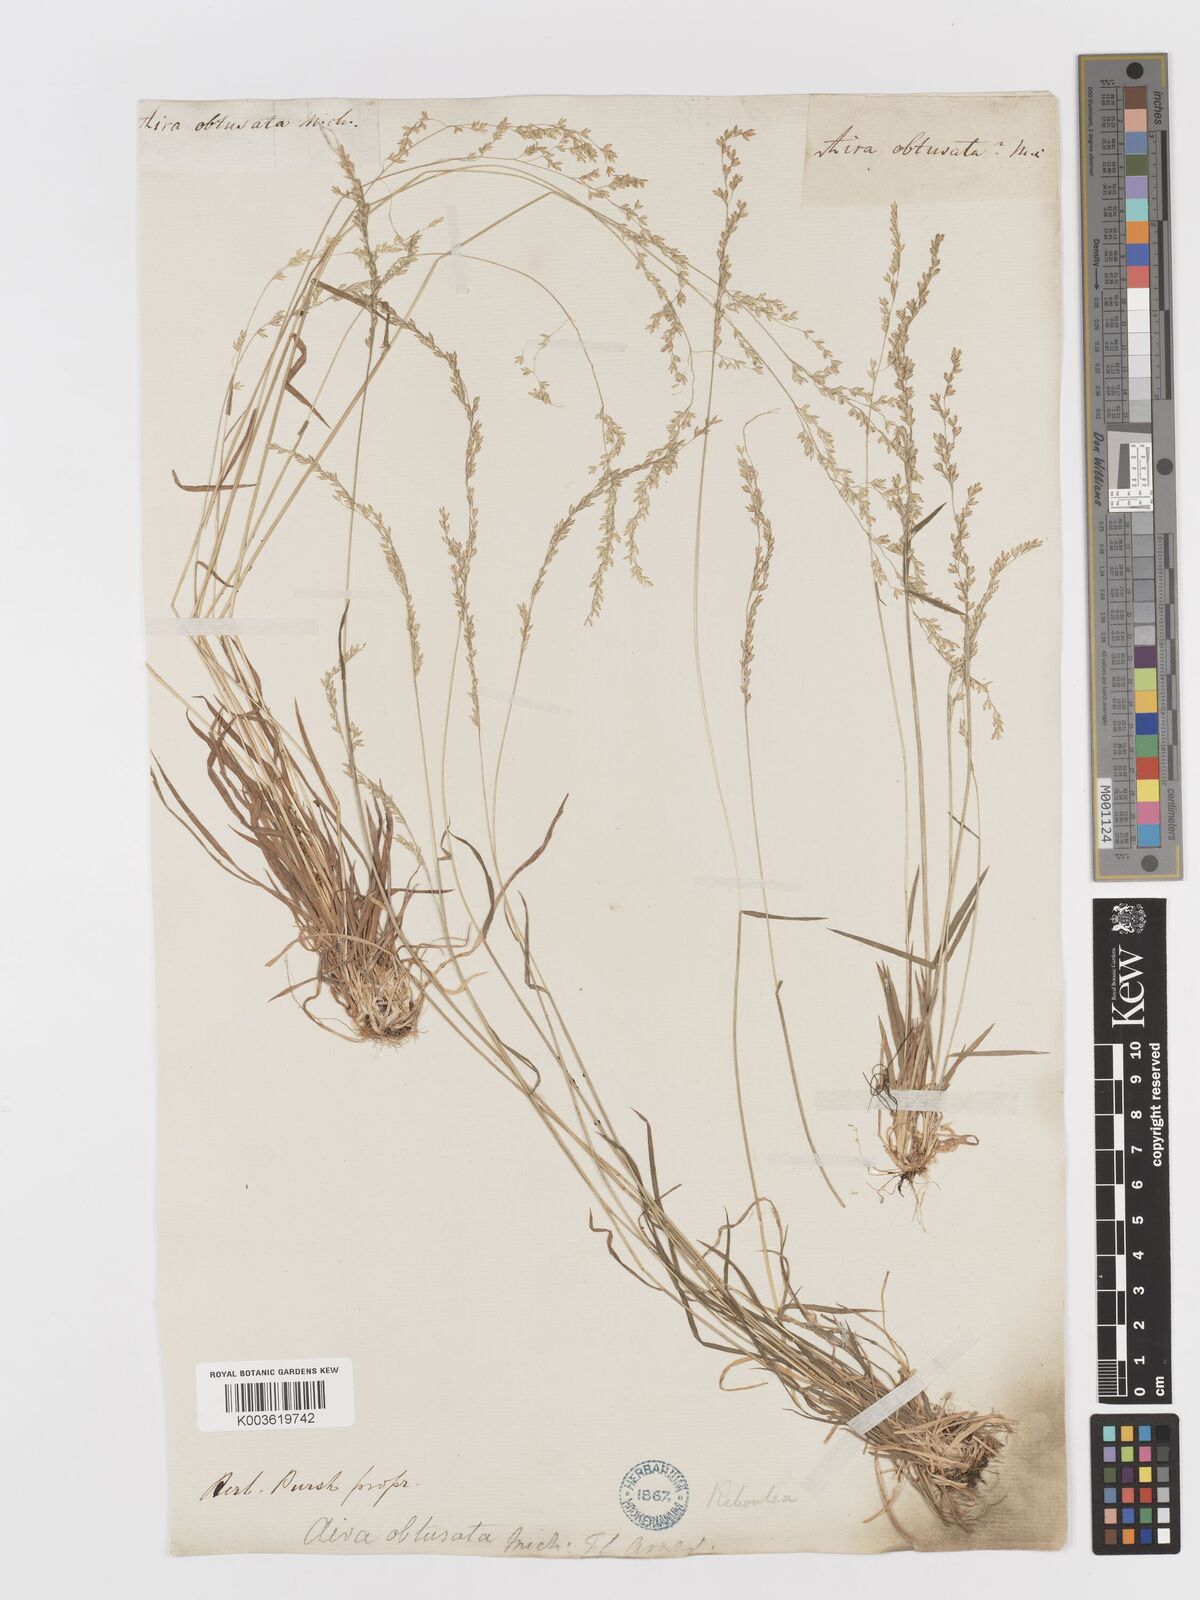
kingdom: Plantae
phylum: Tracheophyta
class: Liliopsida
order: Poales
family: Poaceae
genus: Sphenopholis
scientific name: Sphenopholis nitida
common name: Shiny wedgegrass
